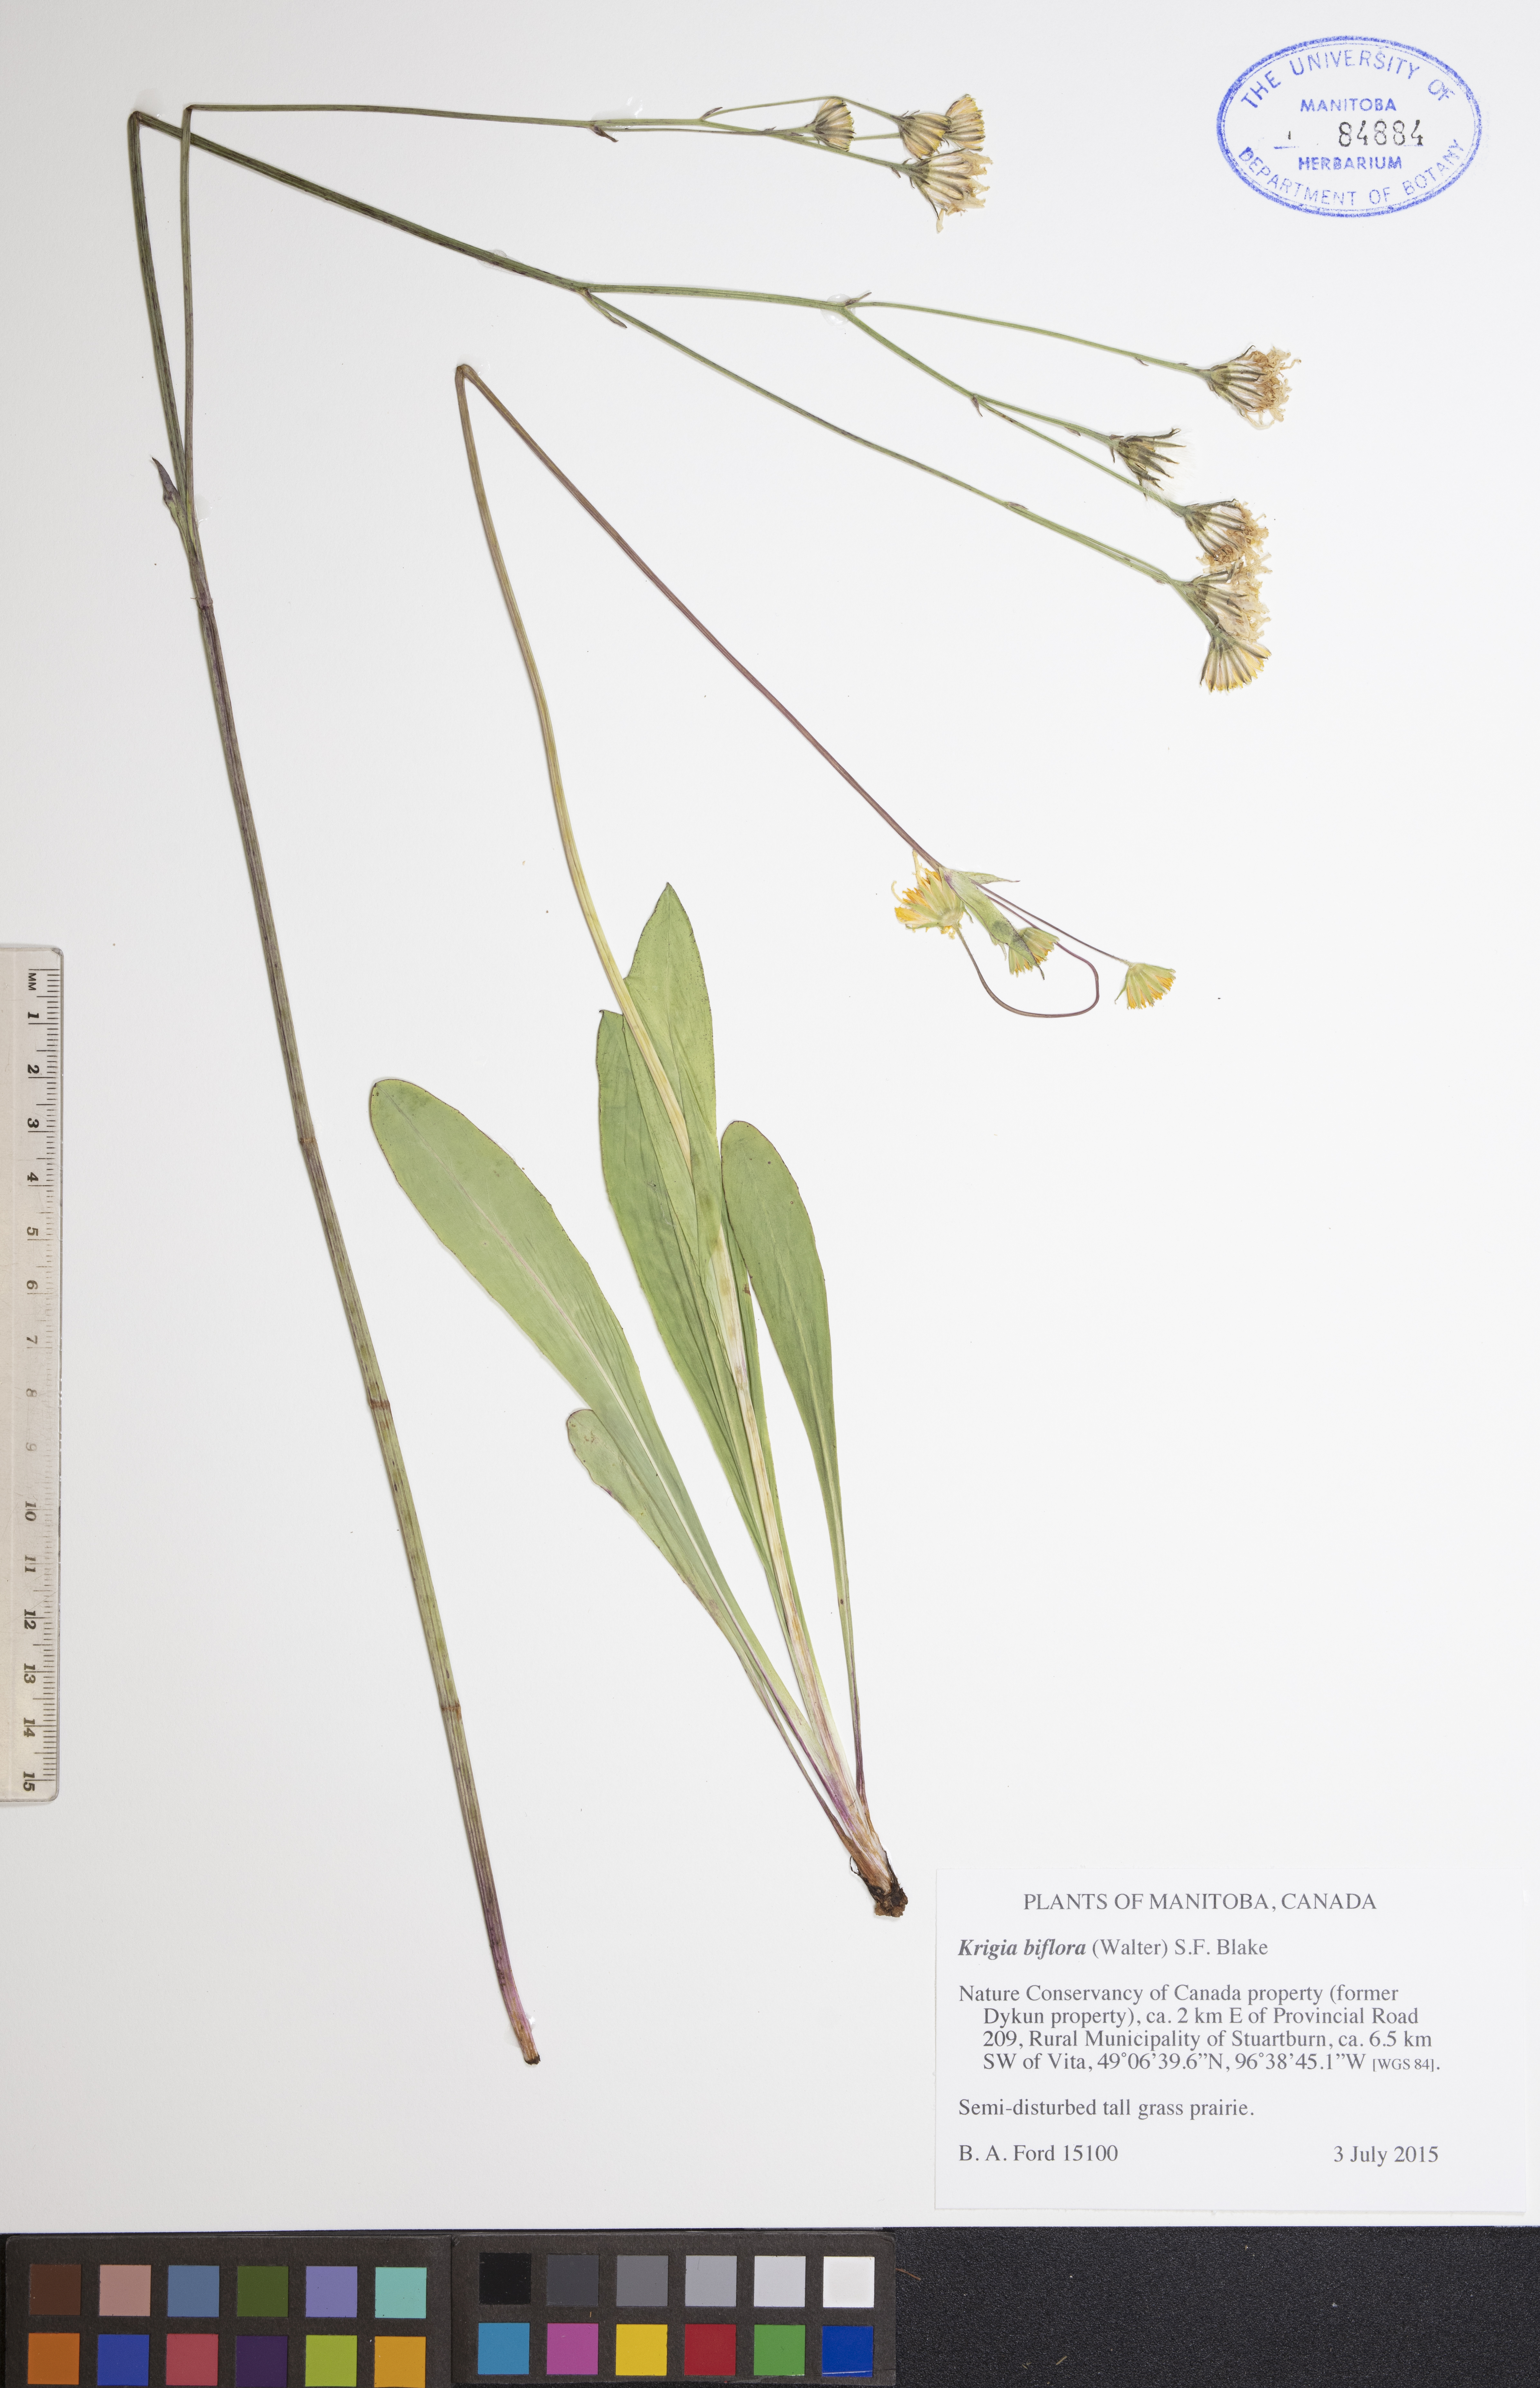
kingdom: Plantae
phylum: Tracheophyta
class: Magnoliopsida
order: Asterales
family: Asteraceae
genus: Krigia
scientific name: Krigia biflora
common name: Orange dwarf-dandelion
